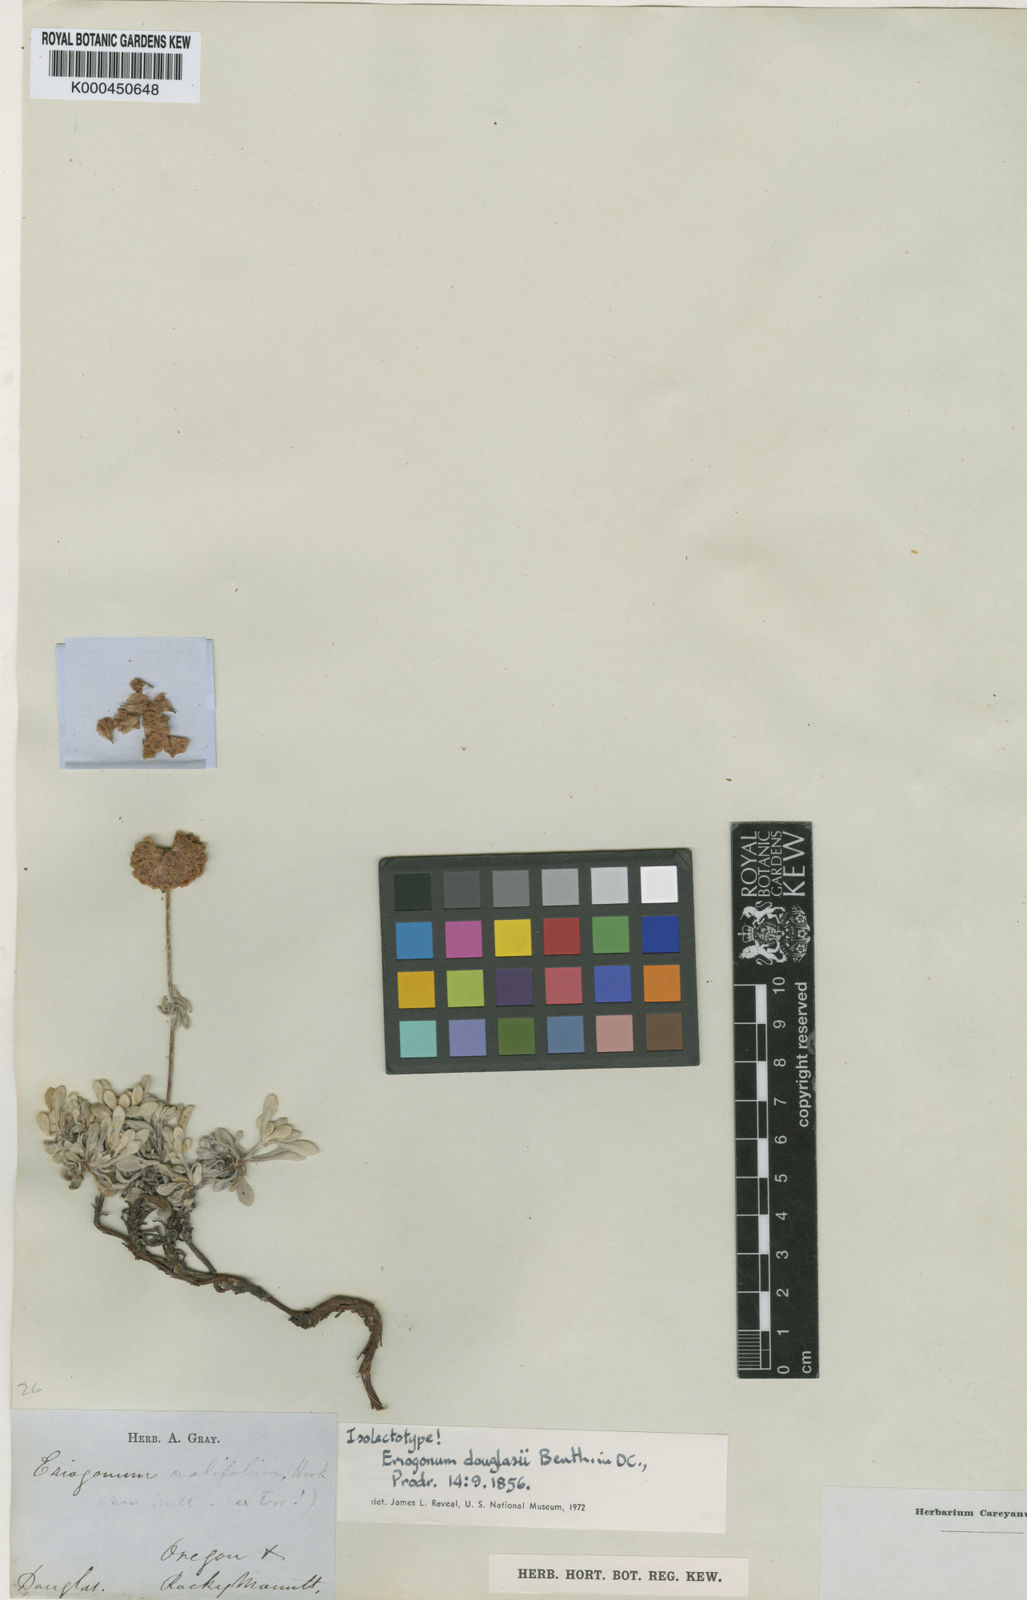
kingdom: Plantae
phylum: Tracheophyta
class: Magnoliopsida
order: Caryophyllales
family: Polygonaceae
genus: Eriogonum
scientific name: Eriogonum douglasii
